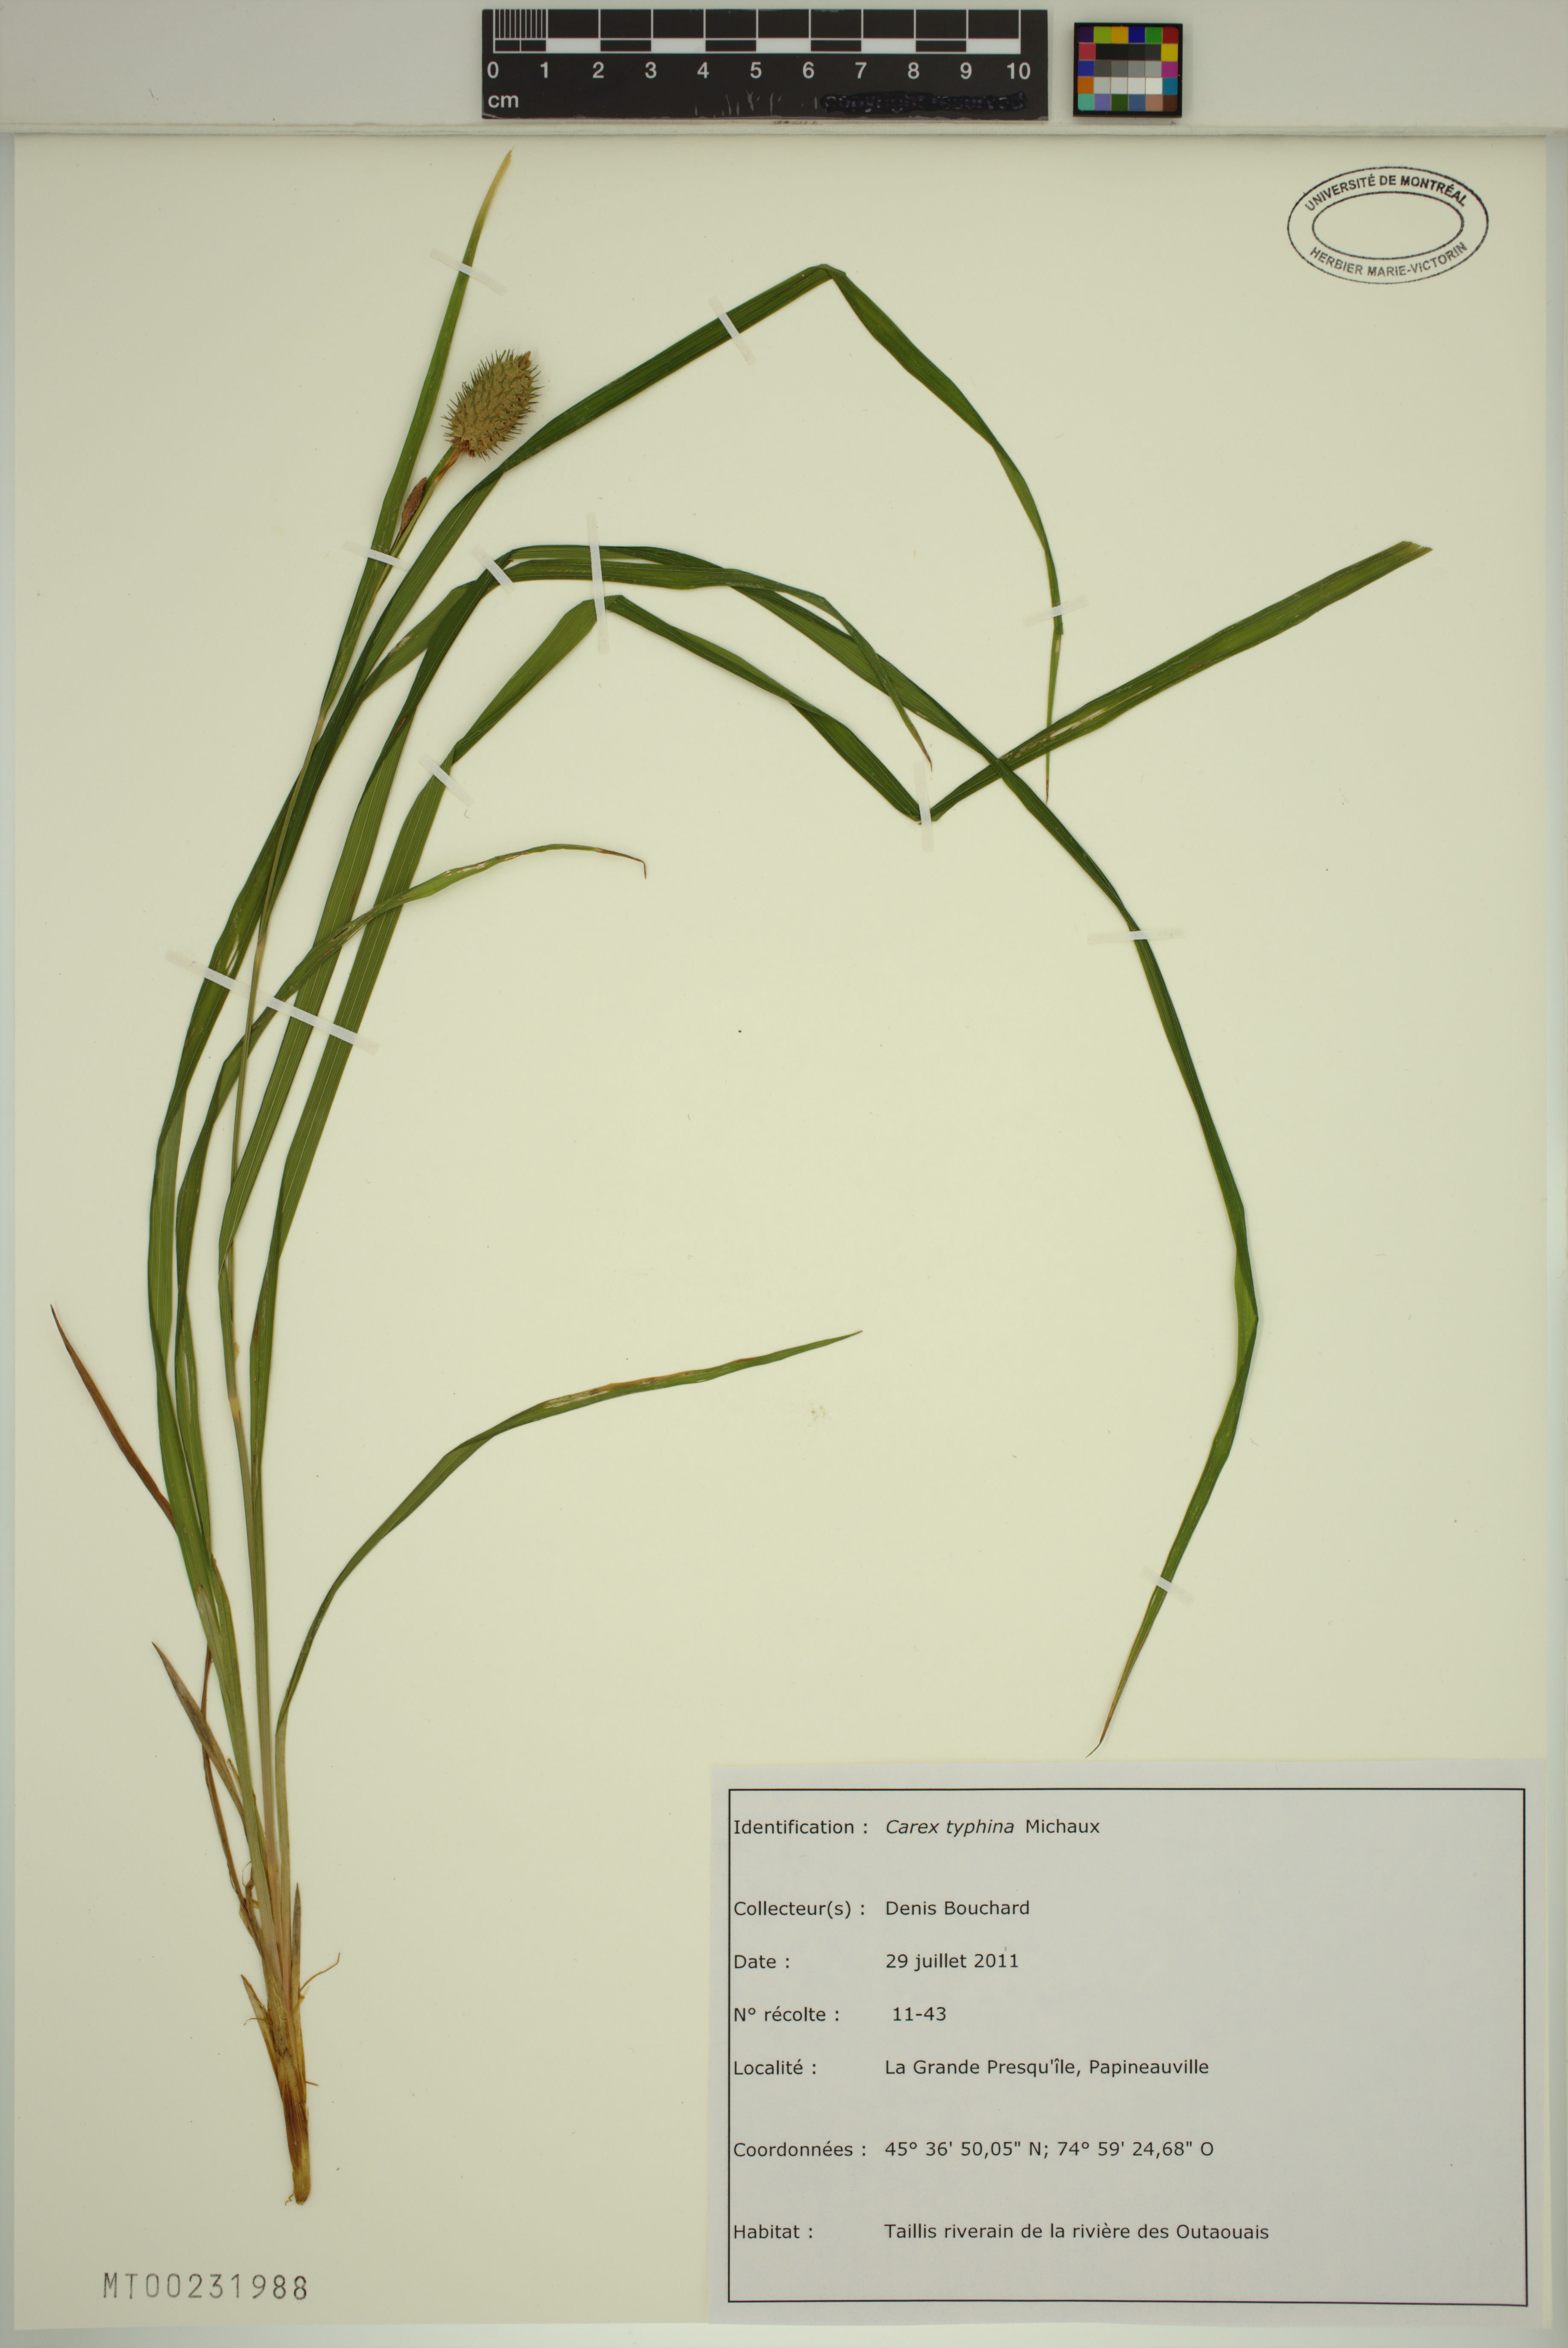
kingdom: Plantae
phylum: Tracheophyta
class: Liliopsida
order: Poales
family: Cyperaceae
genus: Carex
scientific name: Carex typhina
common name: Cattail sedge
